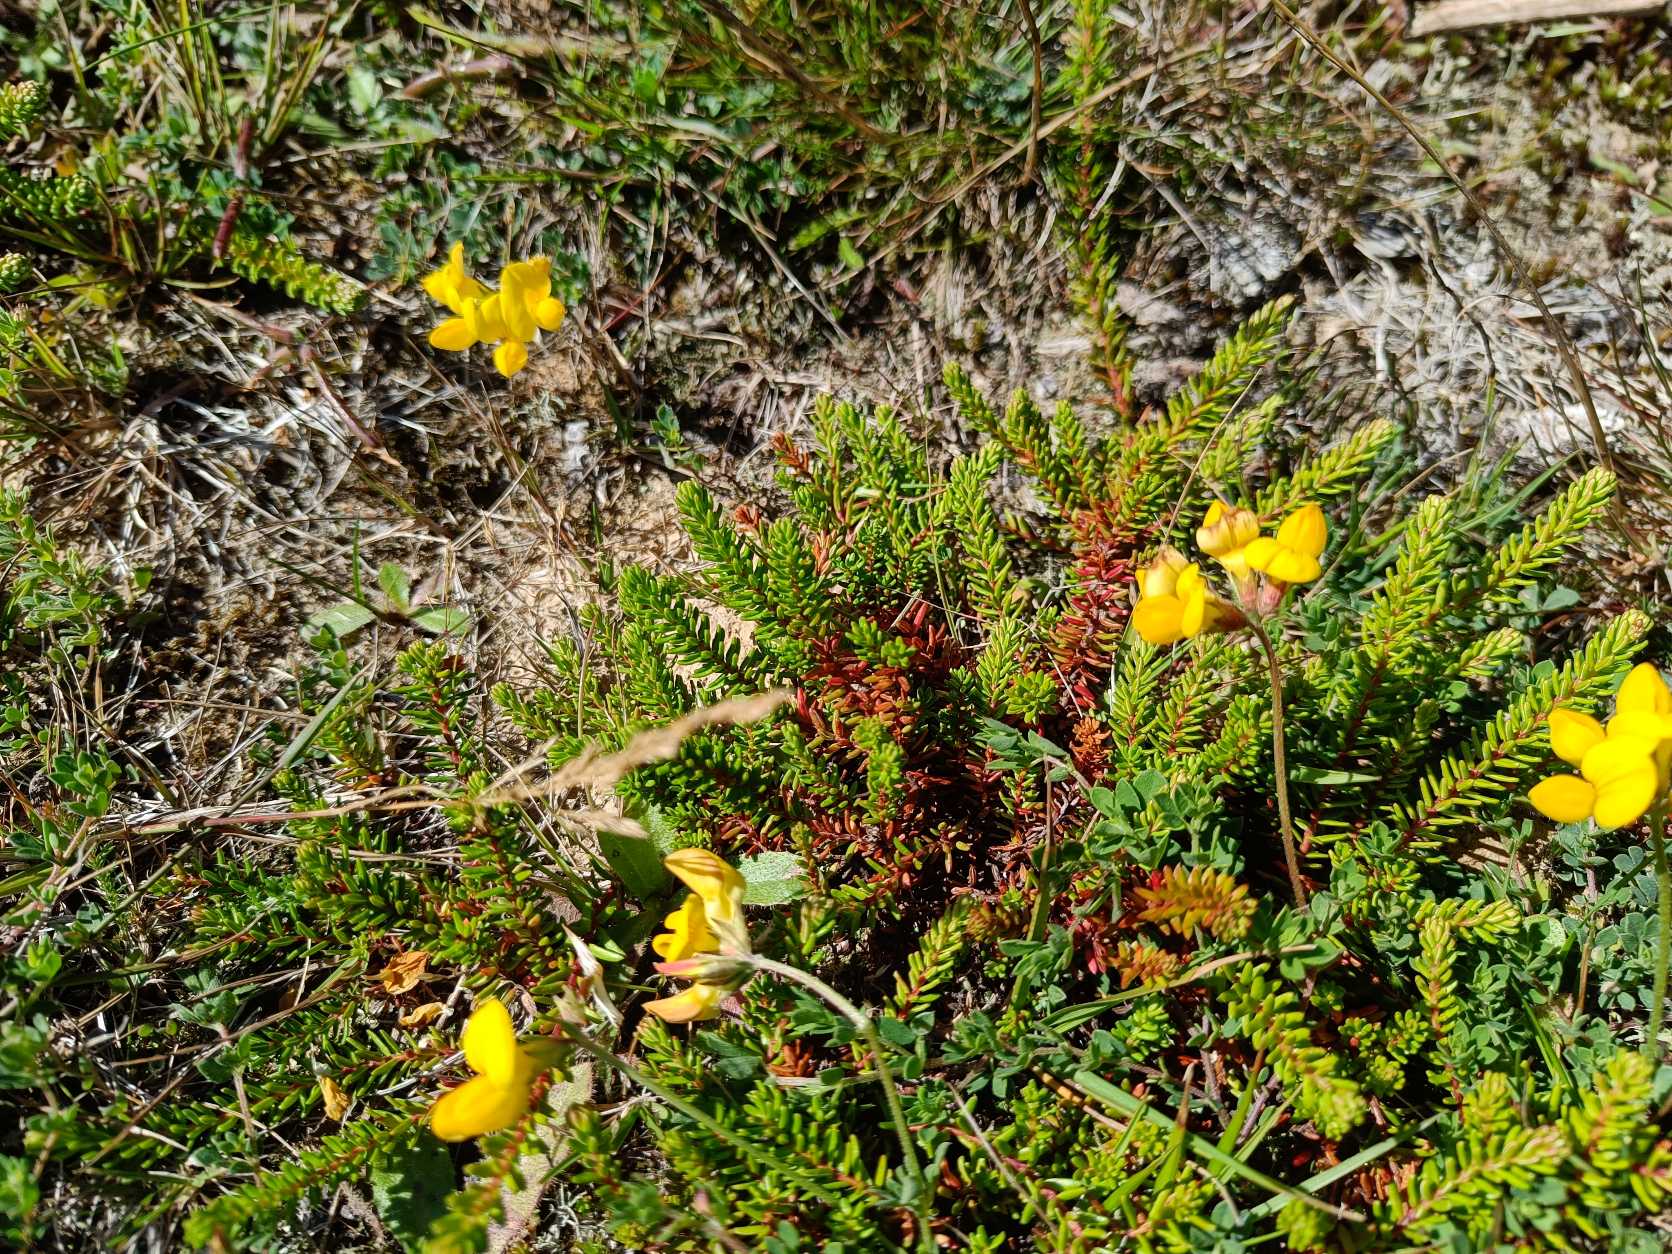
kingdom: Plantae
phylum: Tracheophyta
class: Magnoliopsida
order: Ericales
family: Ericaceae
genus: Empetrum
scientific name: Empetrum nigrum
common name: Revling
